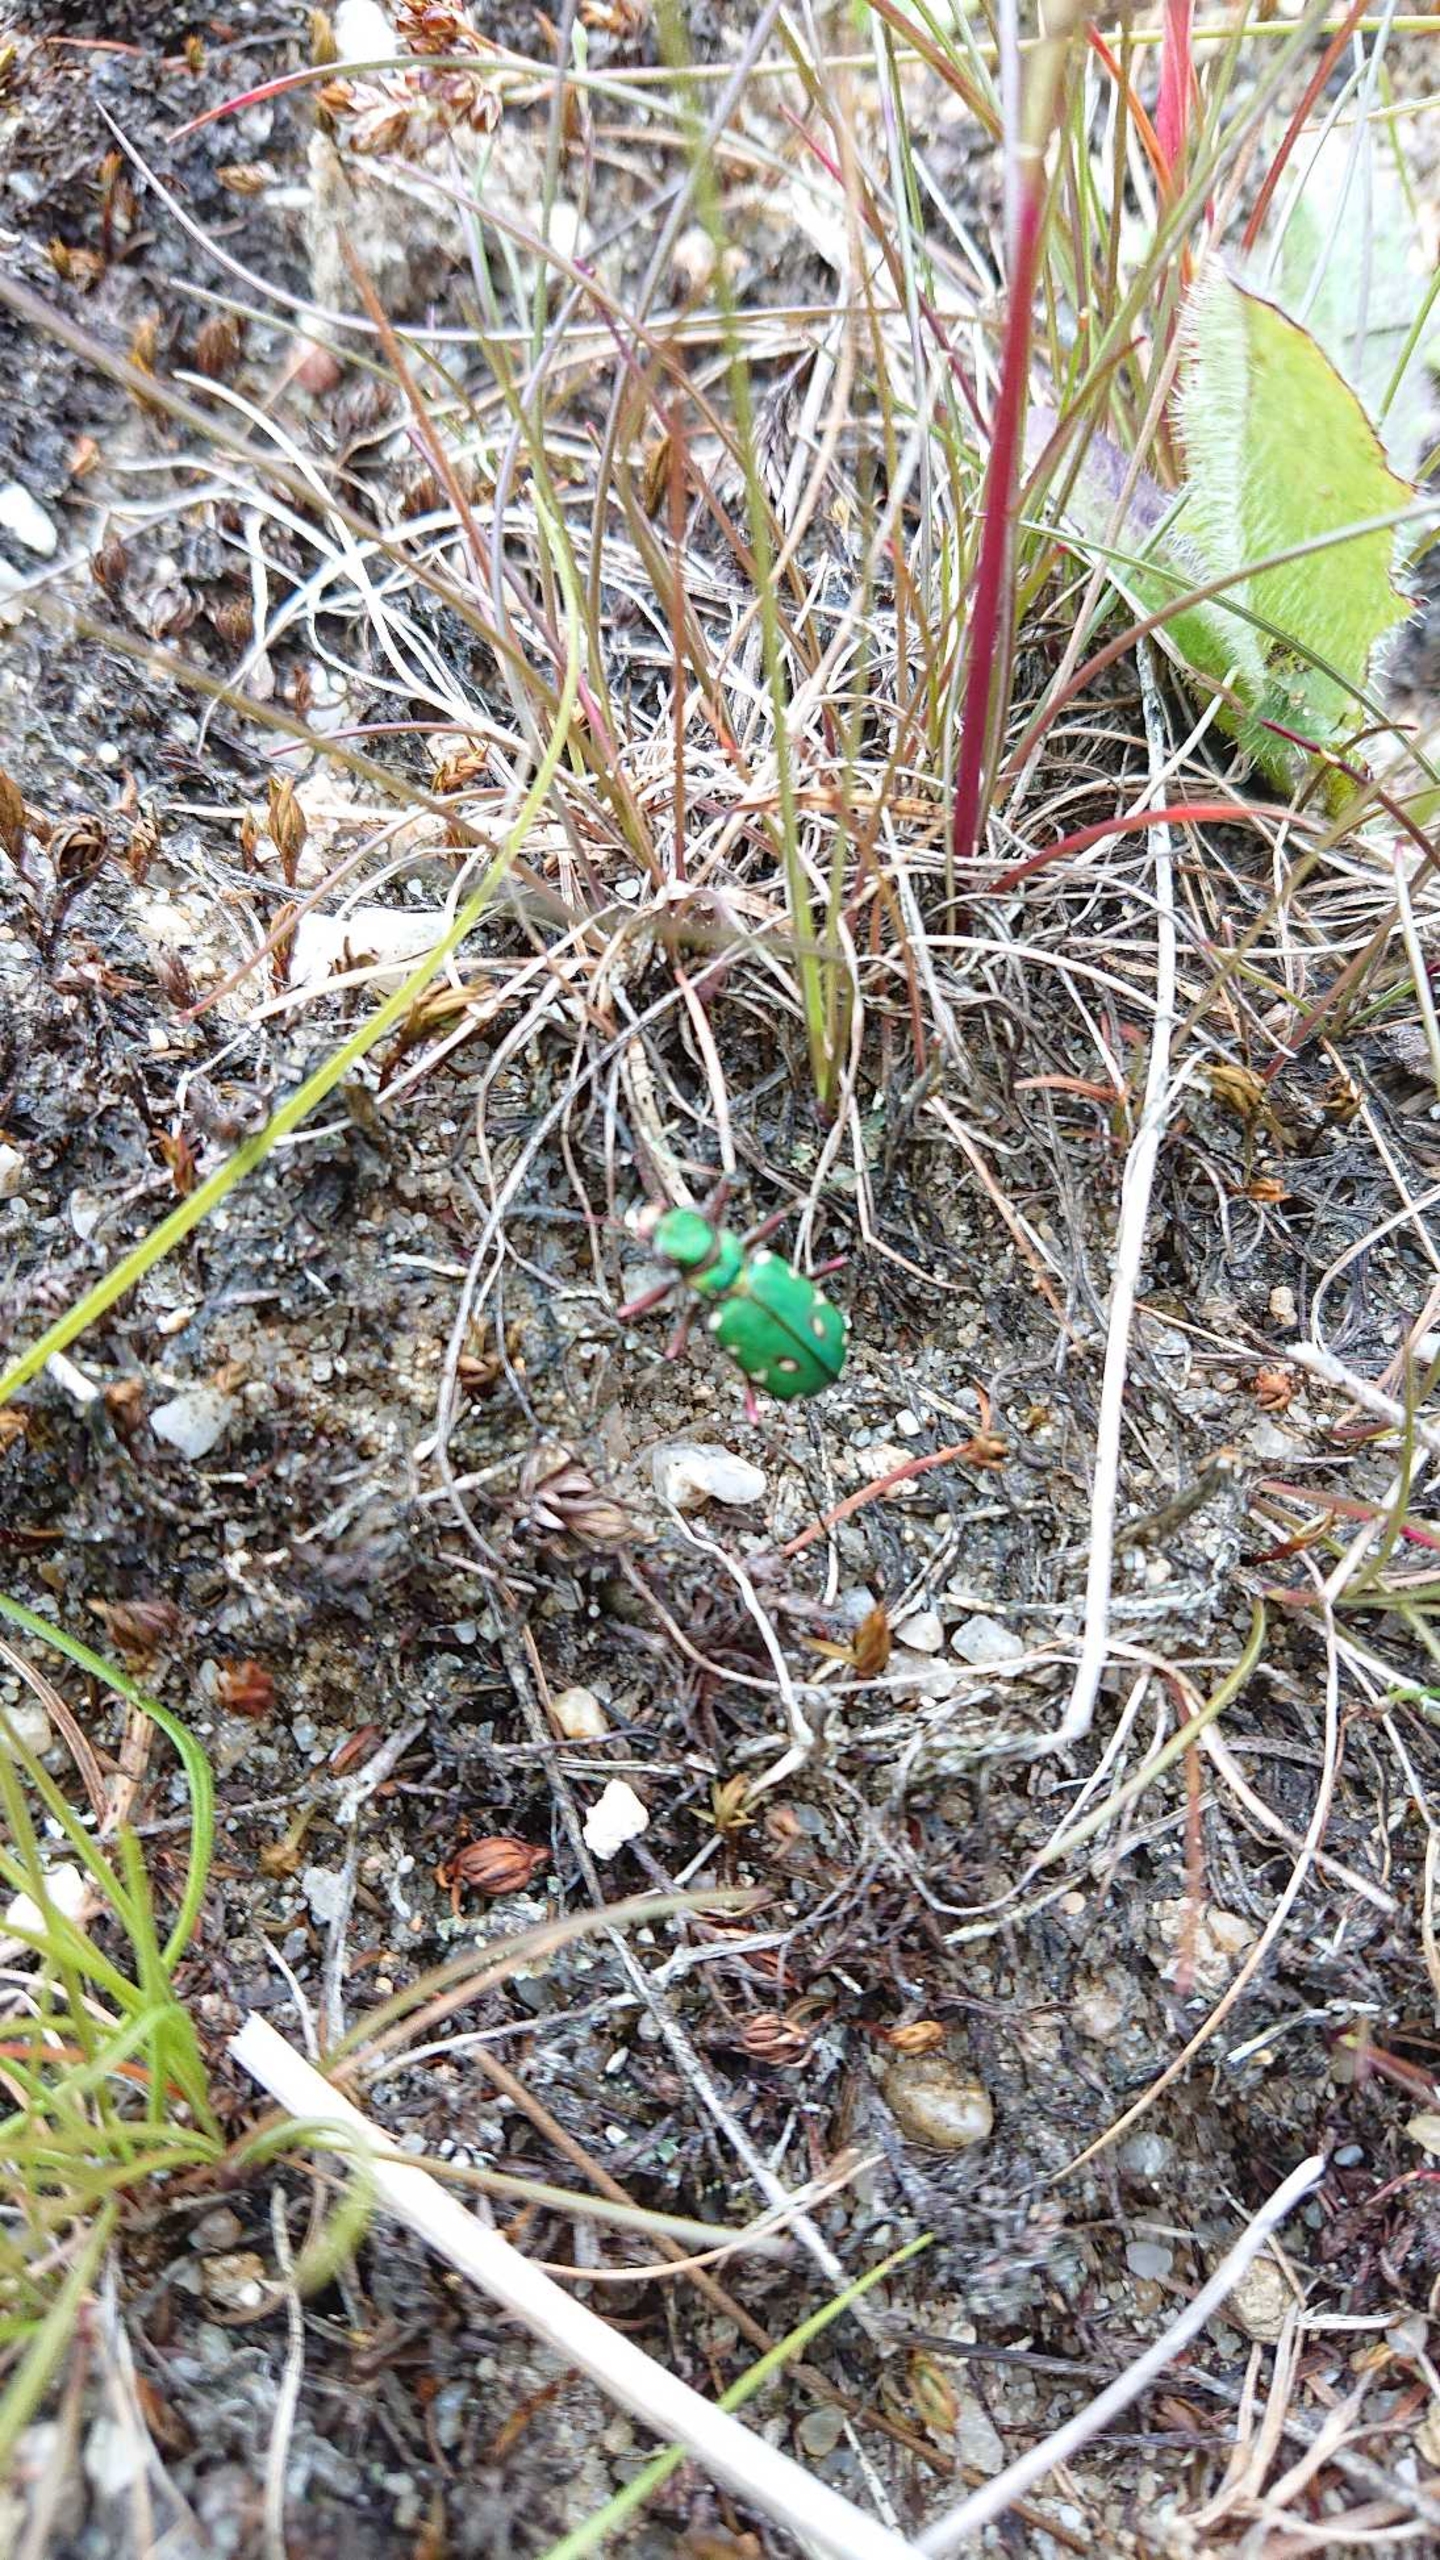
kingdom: Animalia
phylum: Arthropoda
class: Insecta
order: Coleoptera
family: Carabidae
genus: Cicindela
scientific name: Cicindela campestris
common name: Grøn sandspringer
